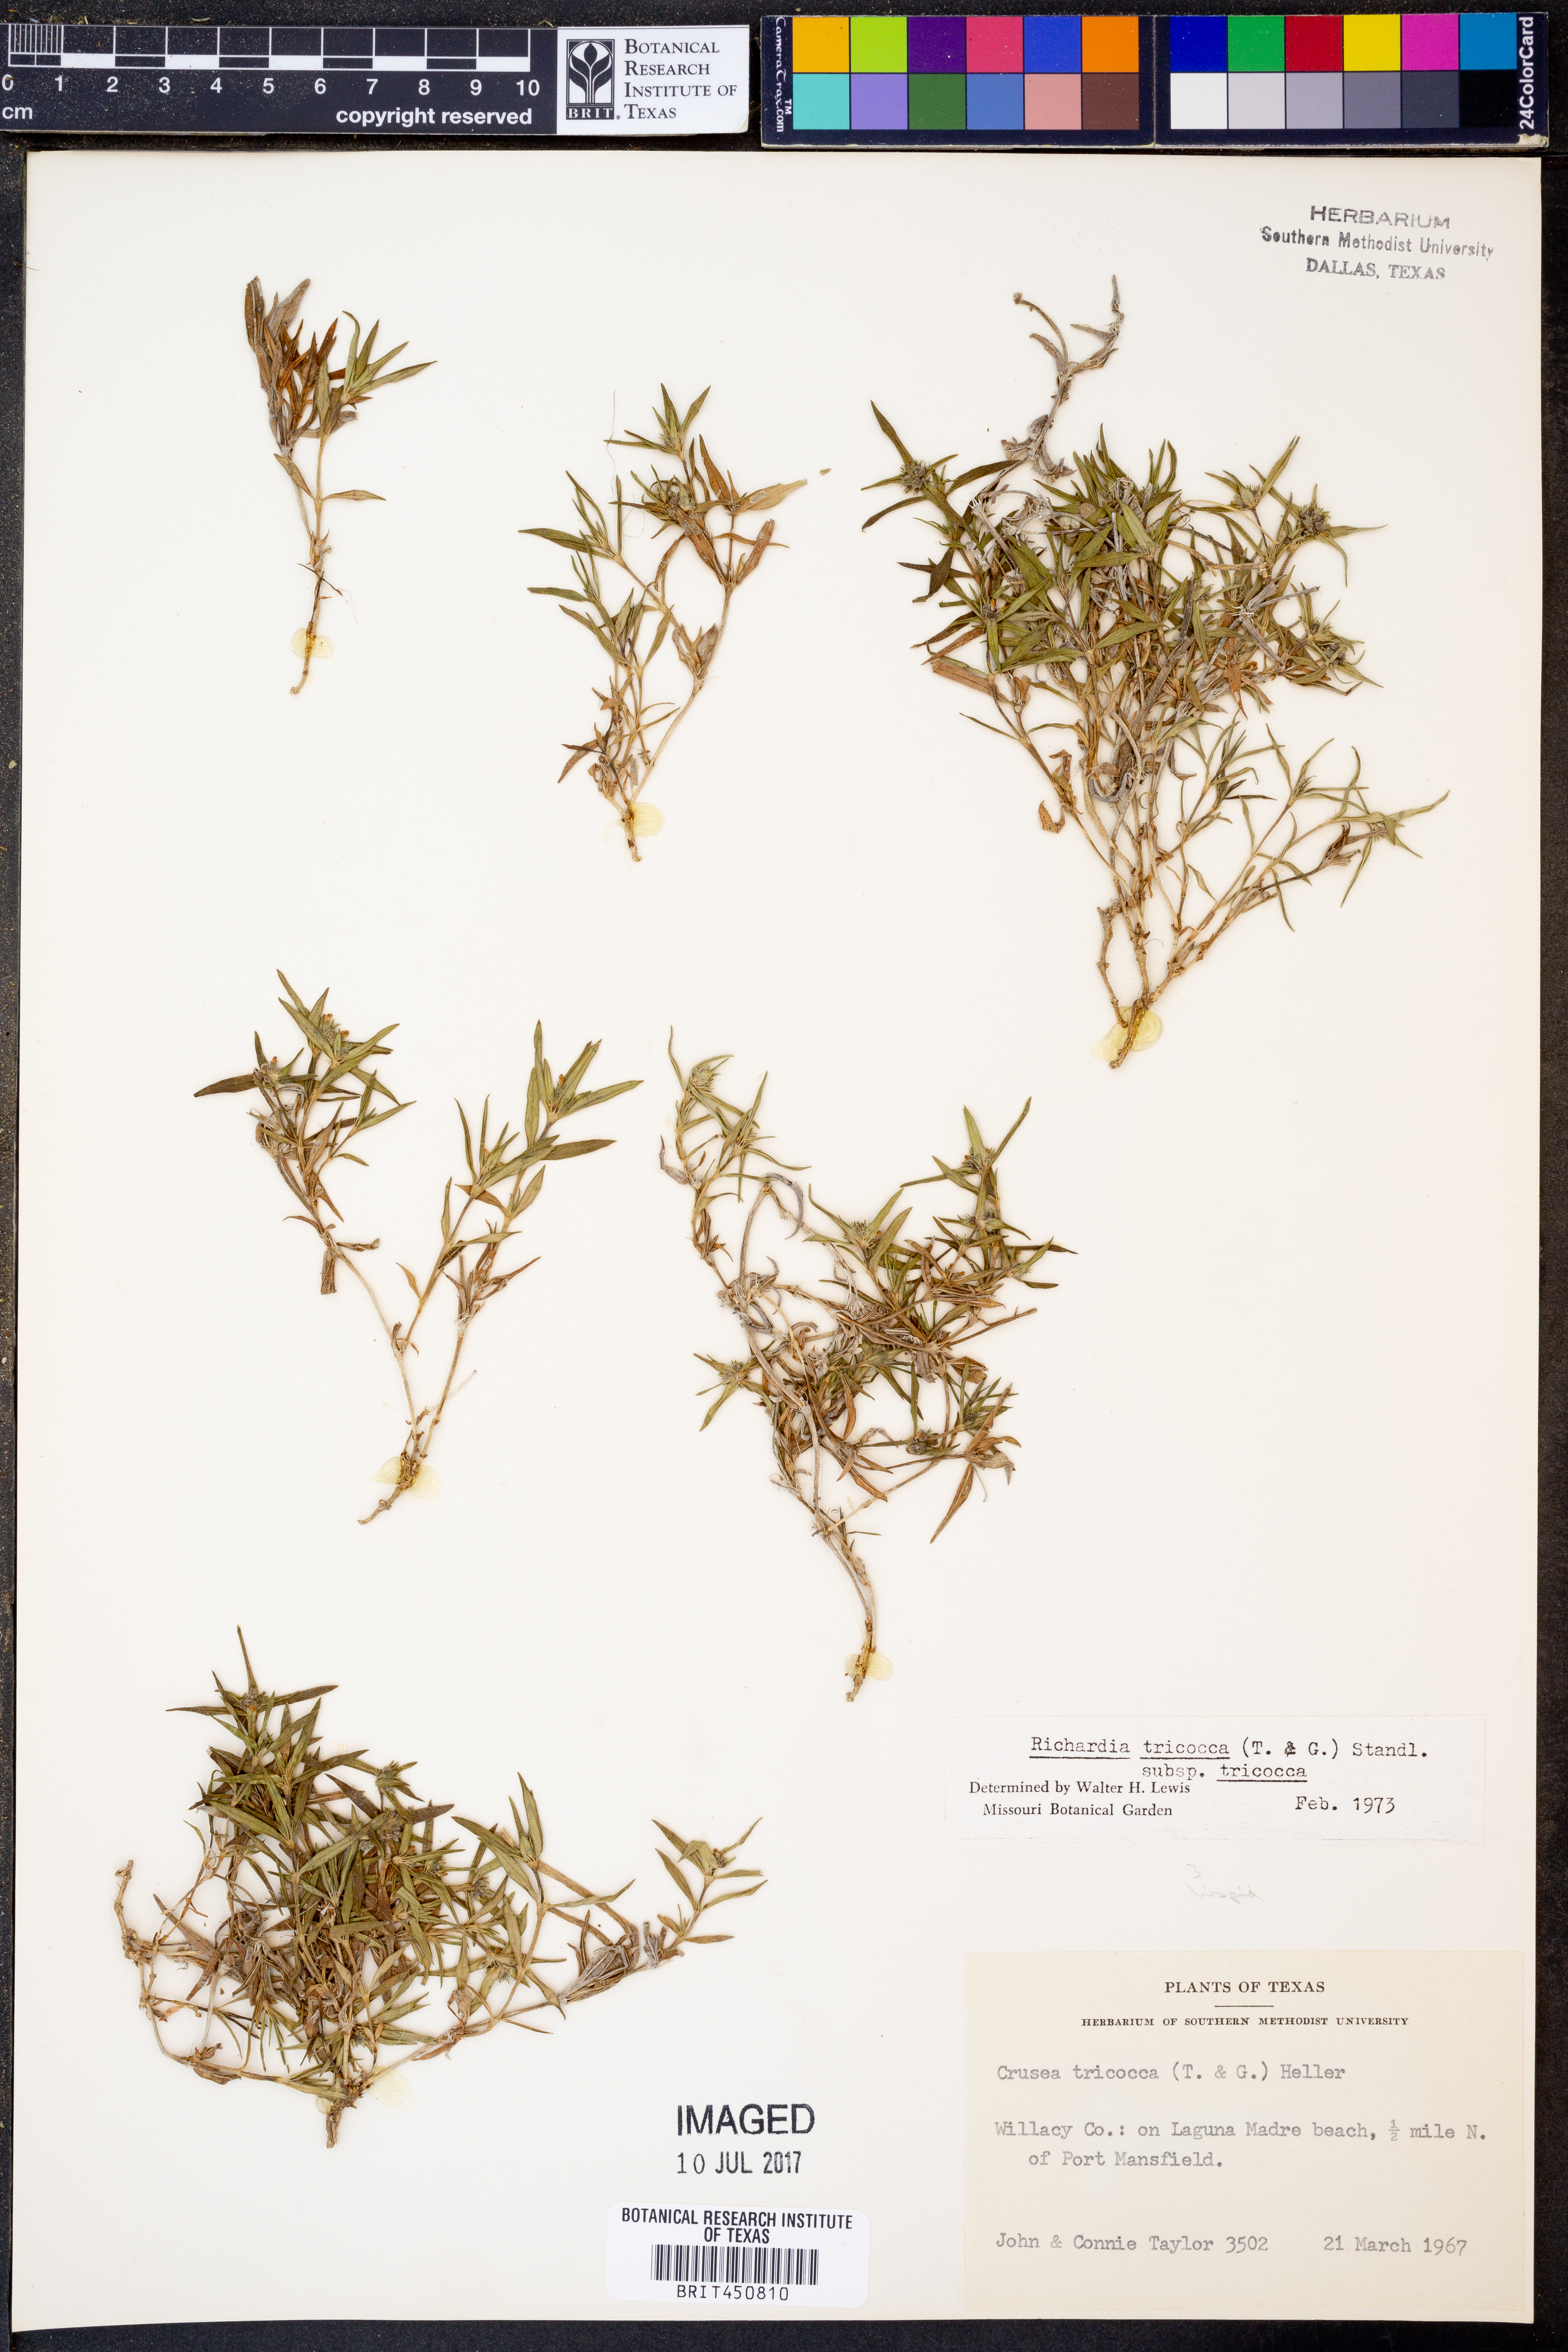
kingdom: Plantae
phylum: Tracheophyta
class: Magnoliopsida
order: Gentianales
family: Rubiaceae
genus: Richardia
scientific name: Richardia tricocca
